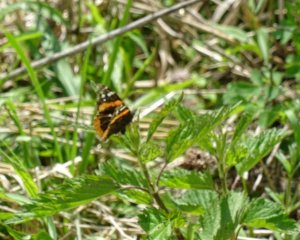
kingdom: Animalia
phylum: Arthropoda
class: Insecta
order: Lepidoptera
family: Nymphalidae
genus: Vanessa
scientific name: Vanessa atalanta
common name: Red Admiral
